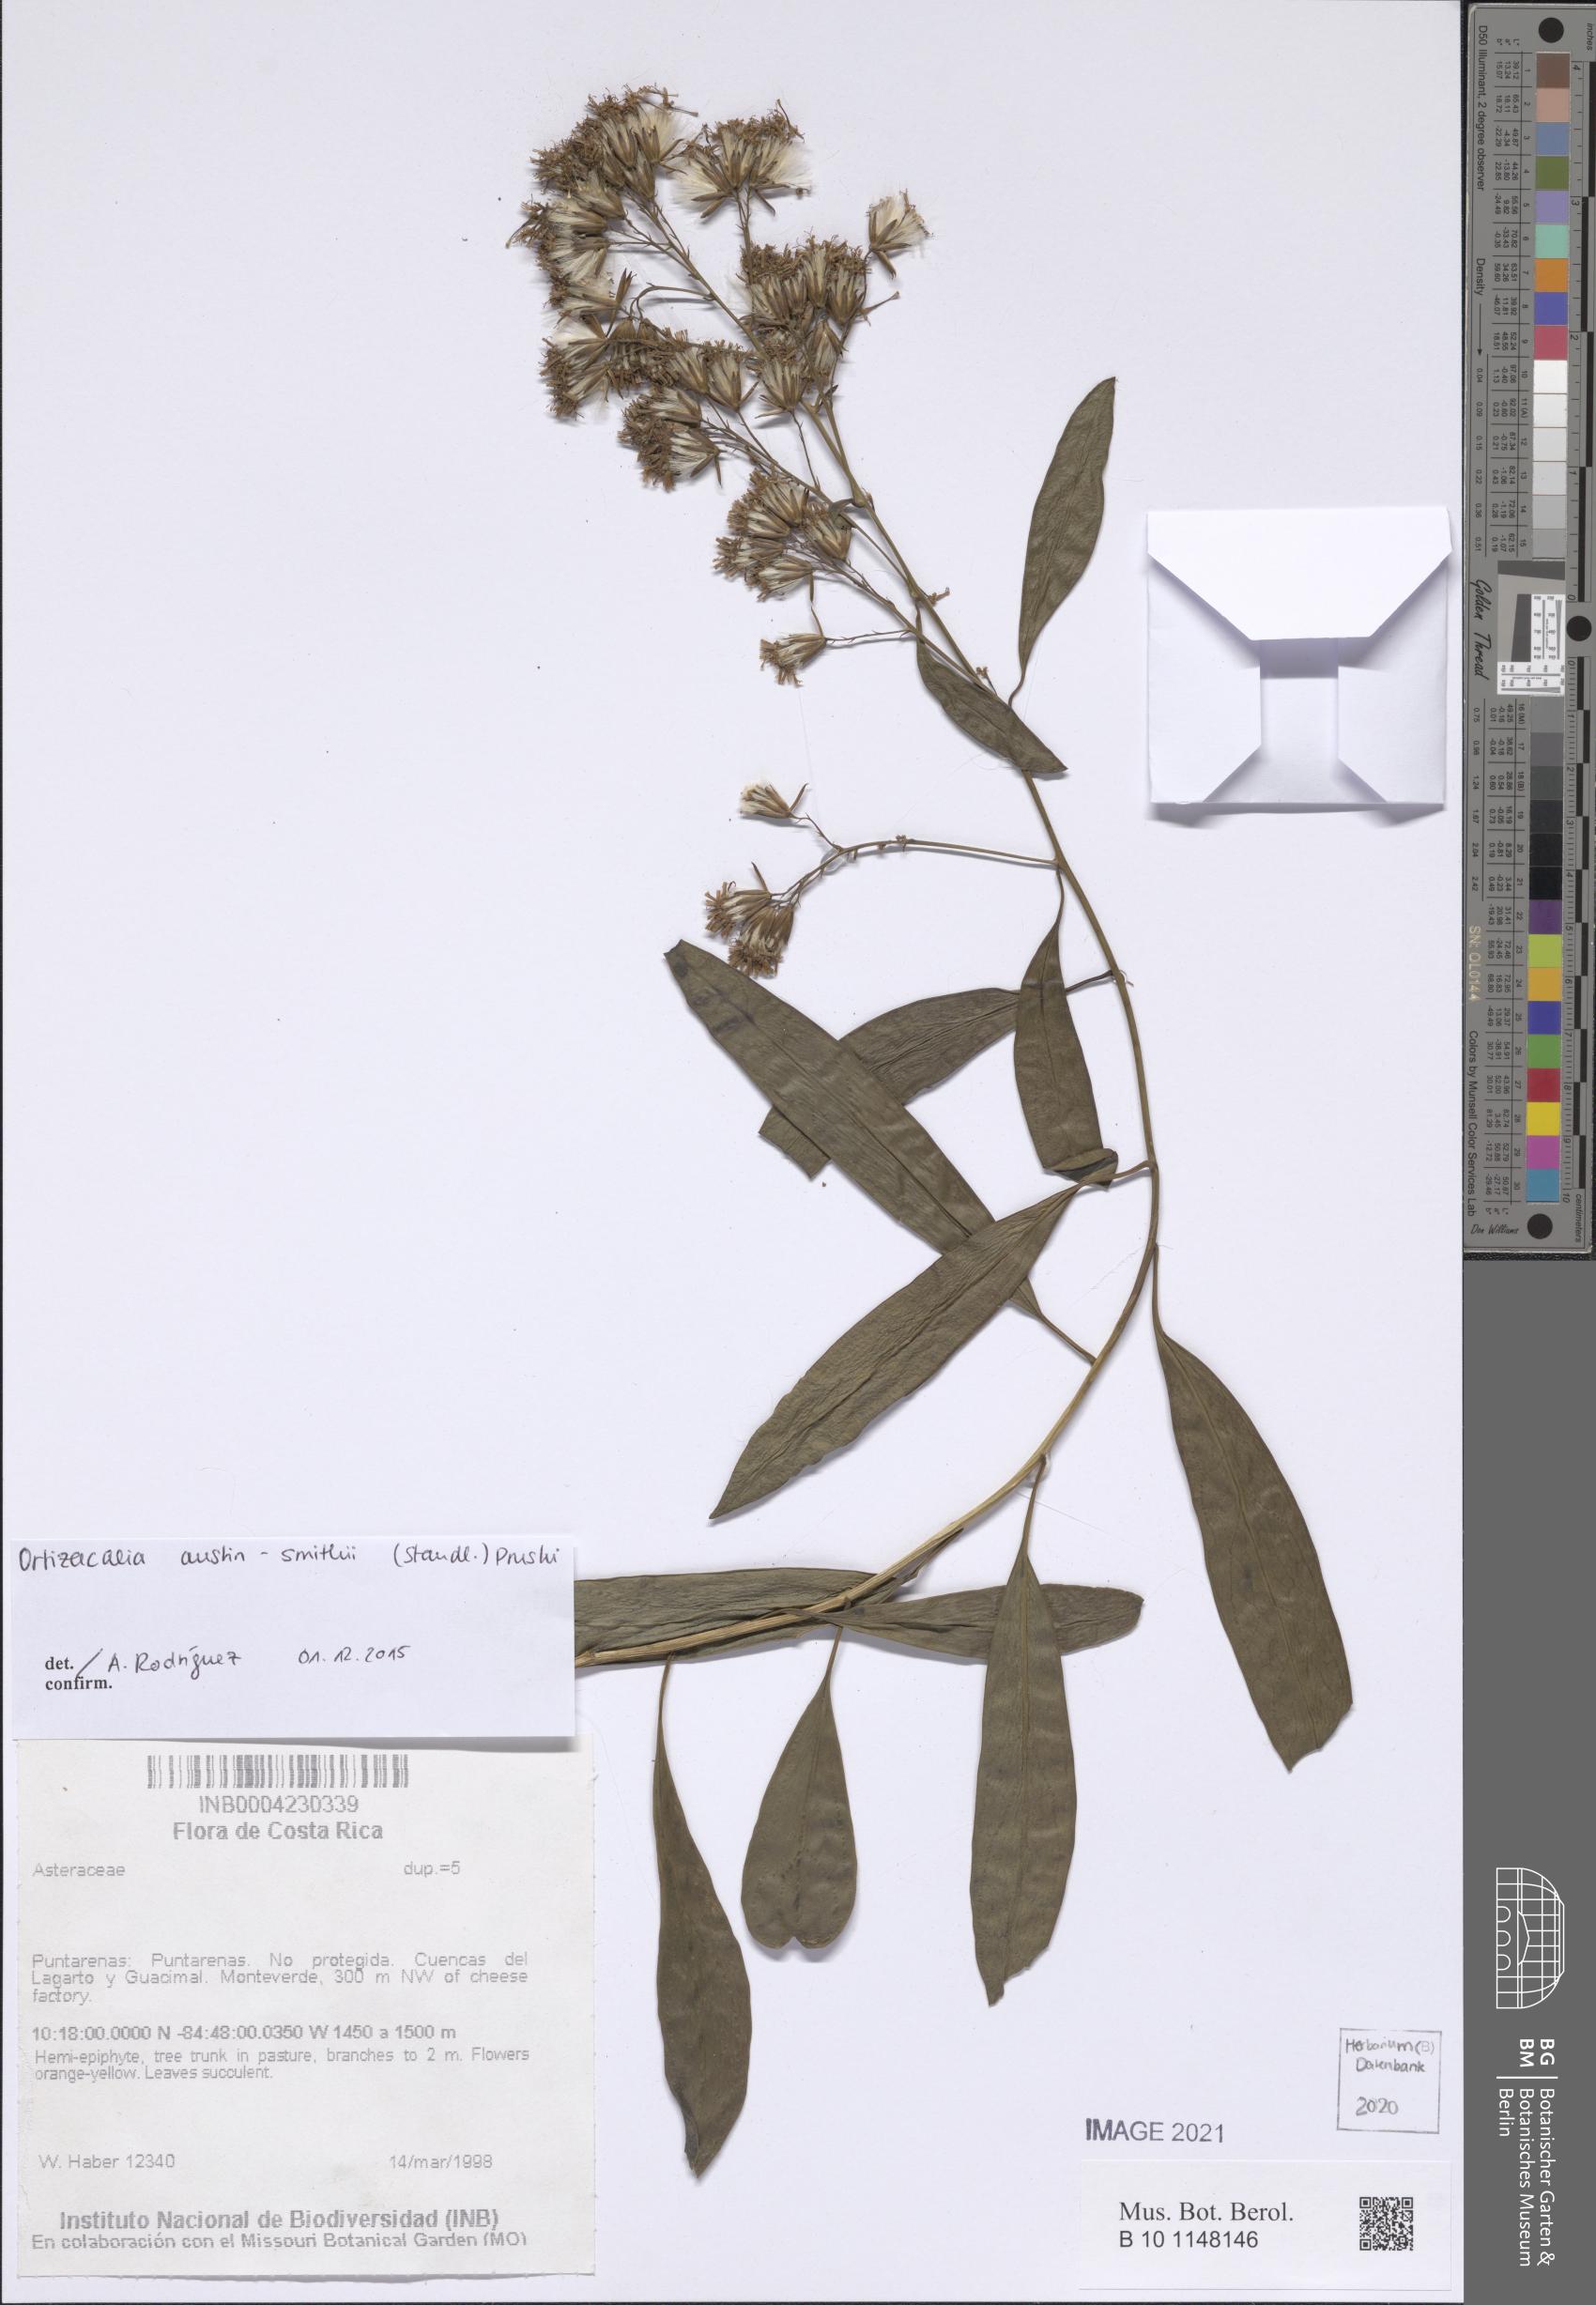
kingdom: Plantae
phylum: Tracheophyta
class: Magnoliopsida
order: Asterales
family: Asteraceae
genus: Ortizacalia
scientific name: Ortizacalia austin-smithii
